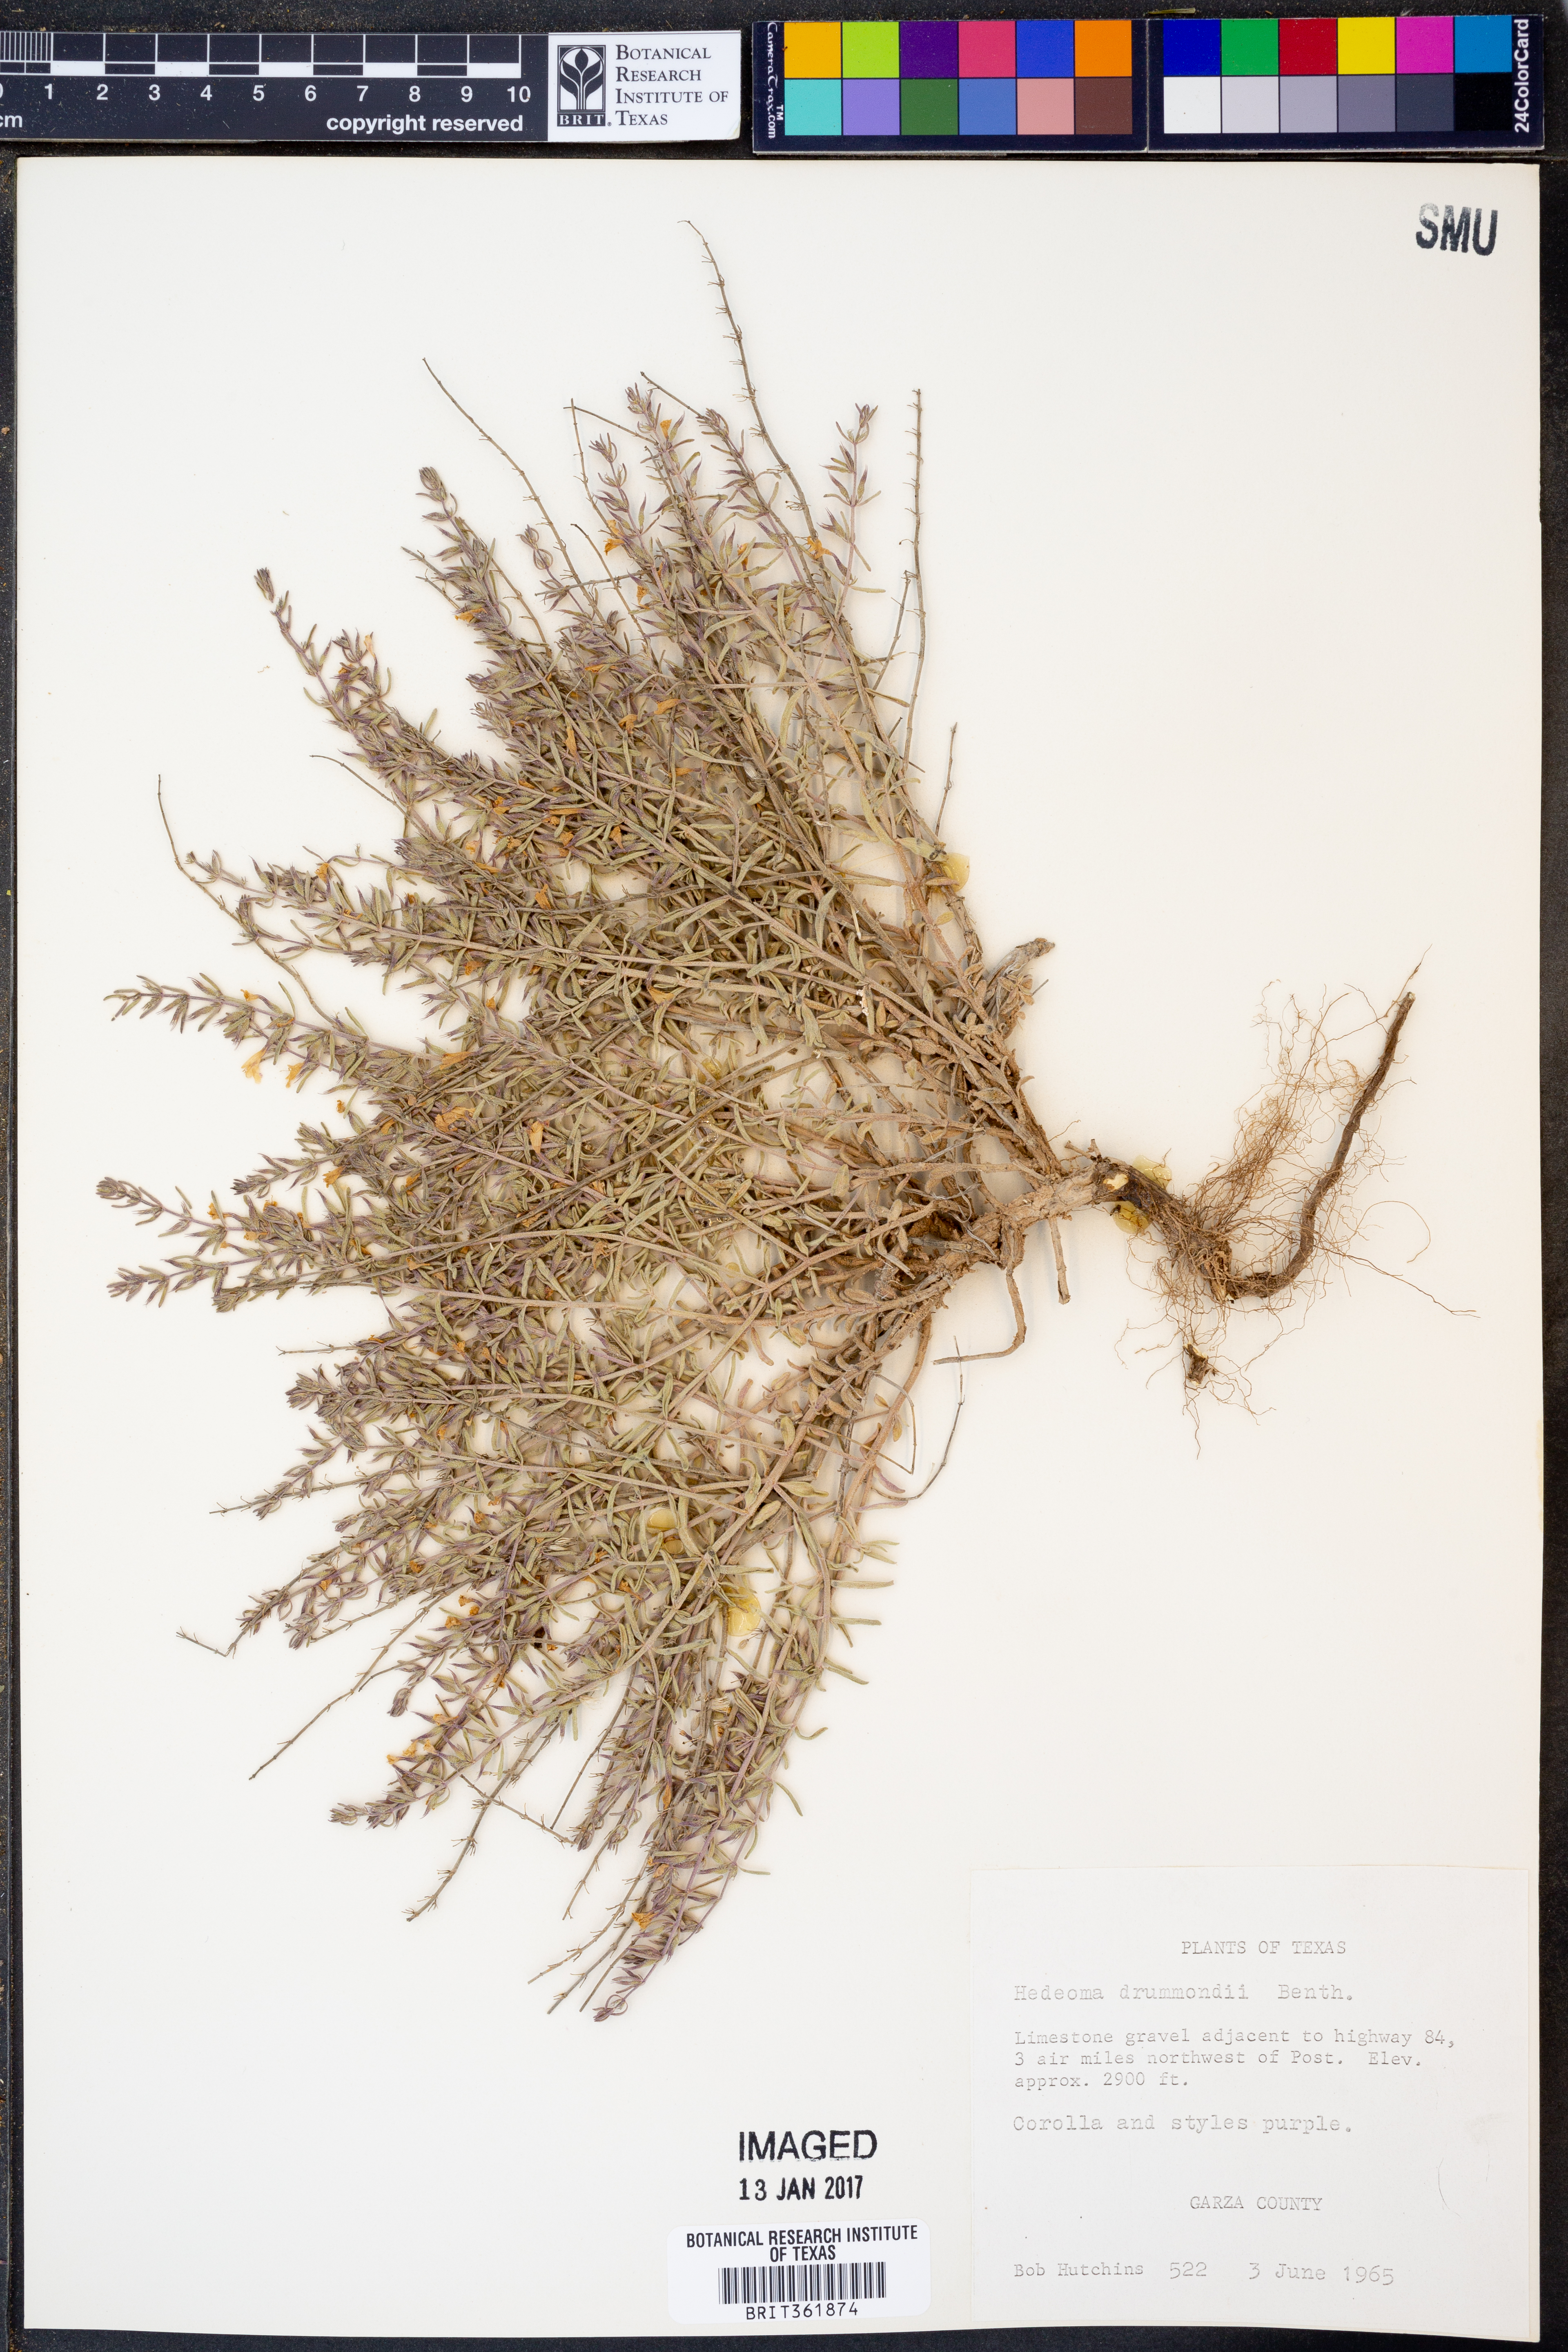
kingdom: Plantae
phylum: Tracheophyta
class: Magnoliopsida
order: Lamiales
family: Lamiaceae
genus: Hedeoma
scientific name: Hedeoma drummondii
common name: New mexico pennyroyal
